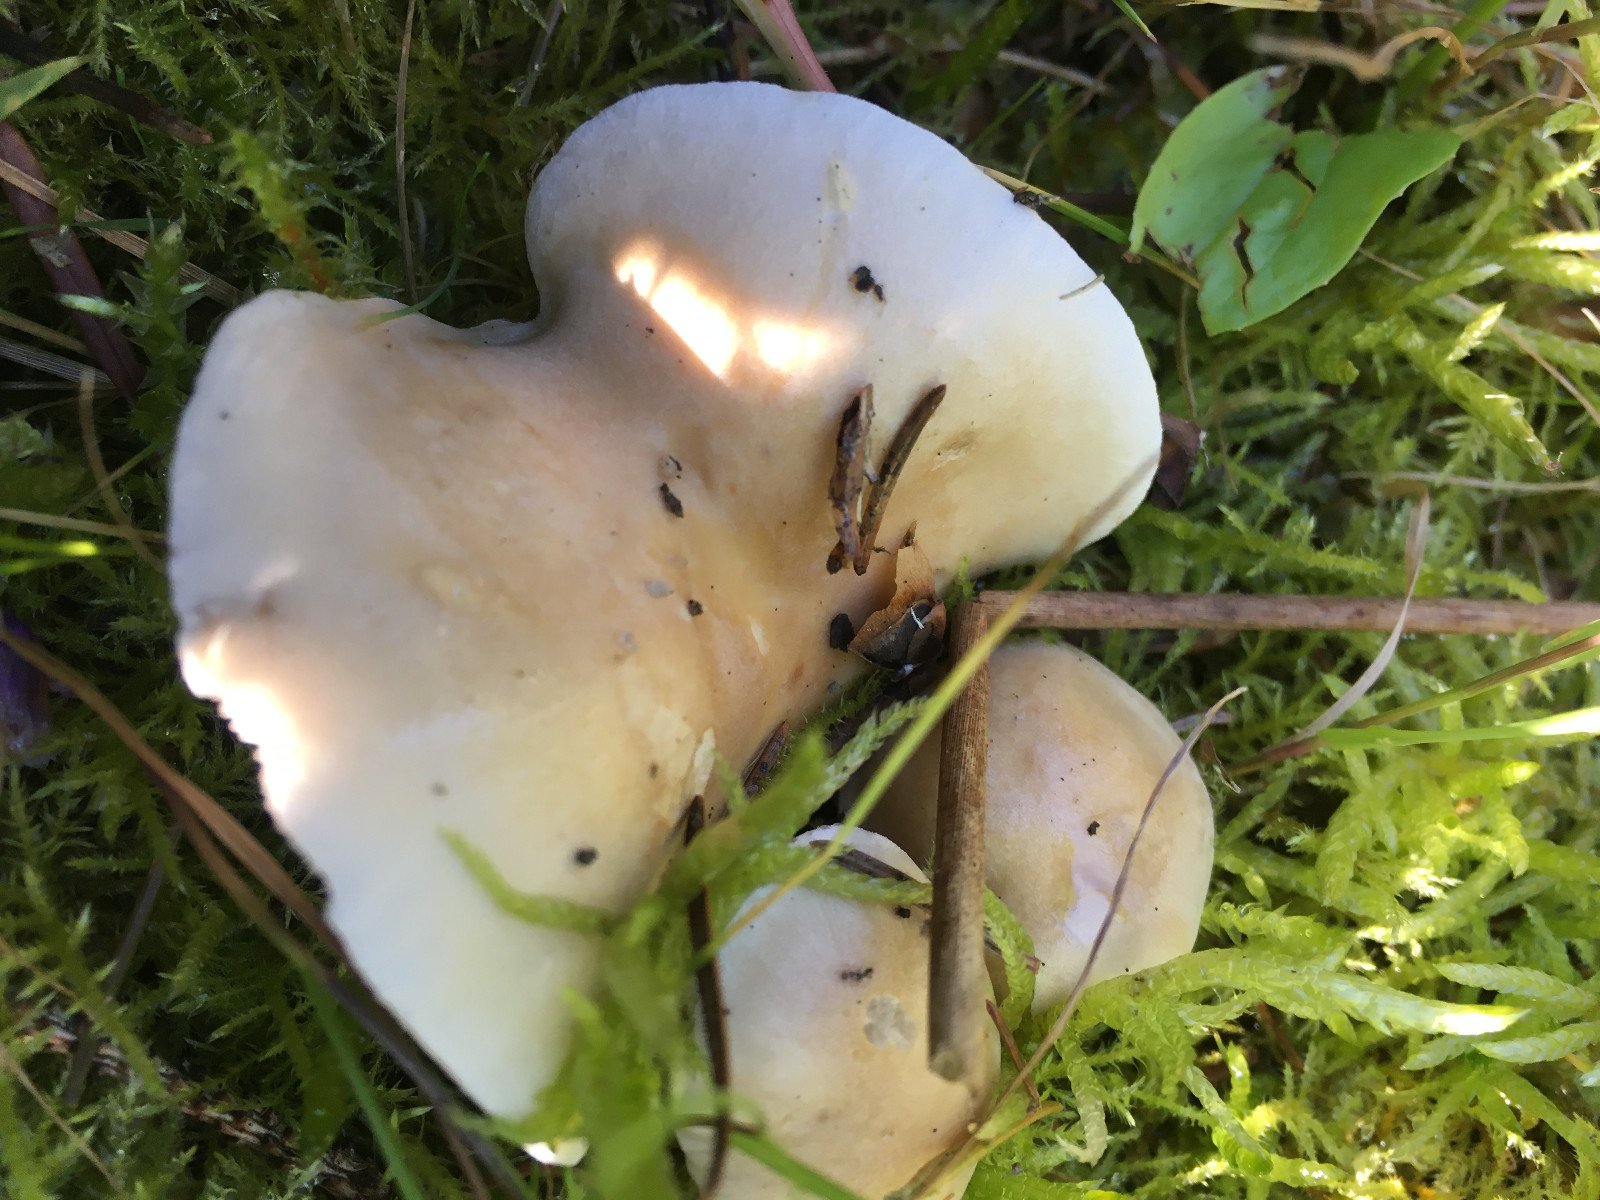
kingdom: Fungi
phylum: Basidiomycota
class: Agaricomycetes
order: Agaricales
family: Hymenogastraceae
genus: Hebeloma
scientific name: Hebeloma
